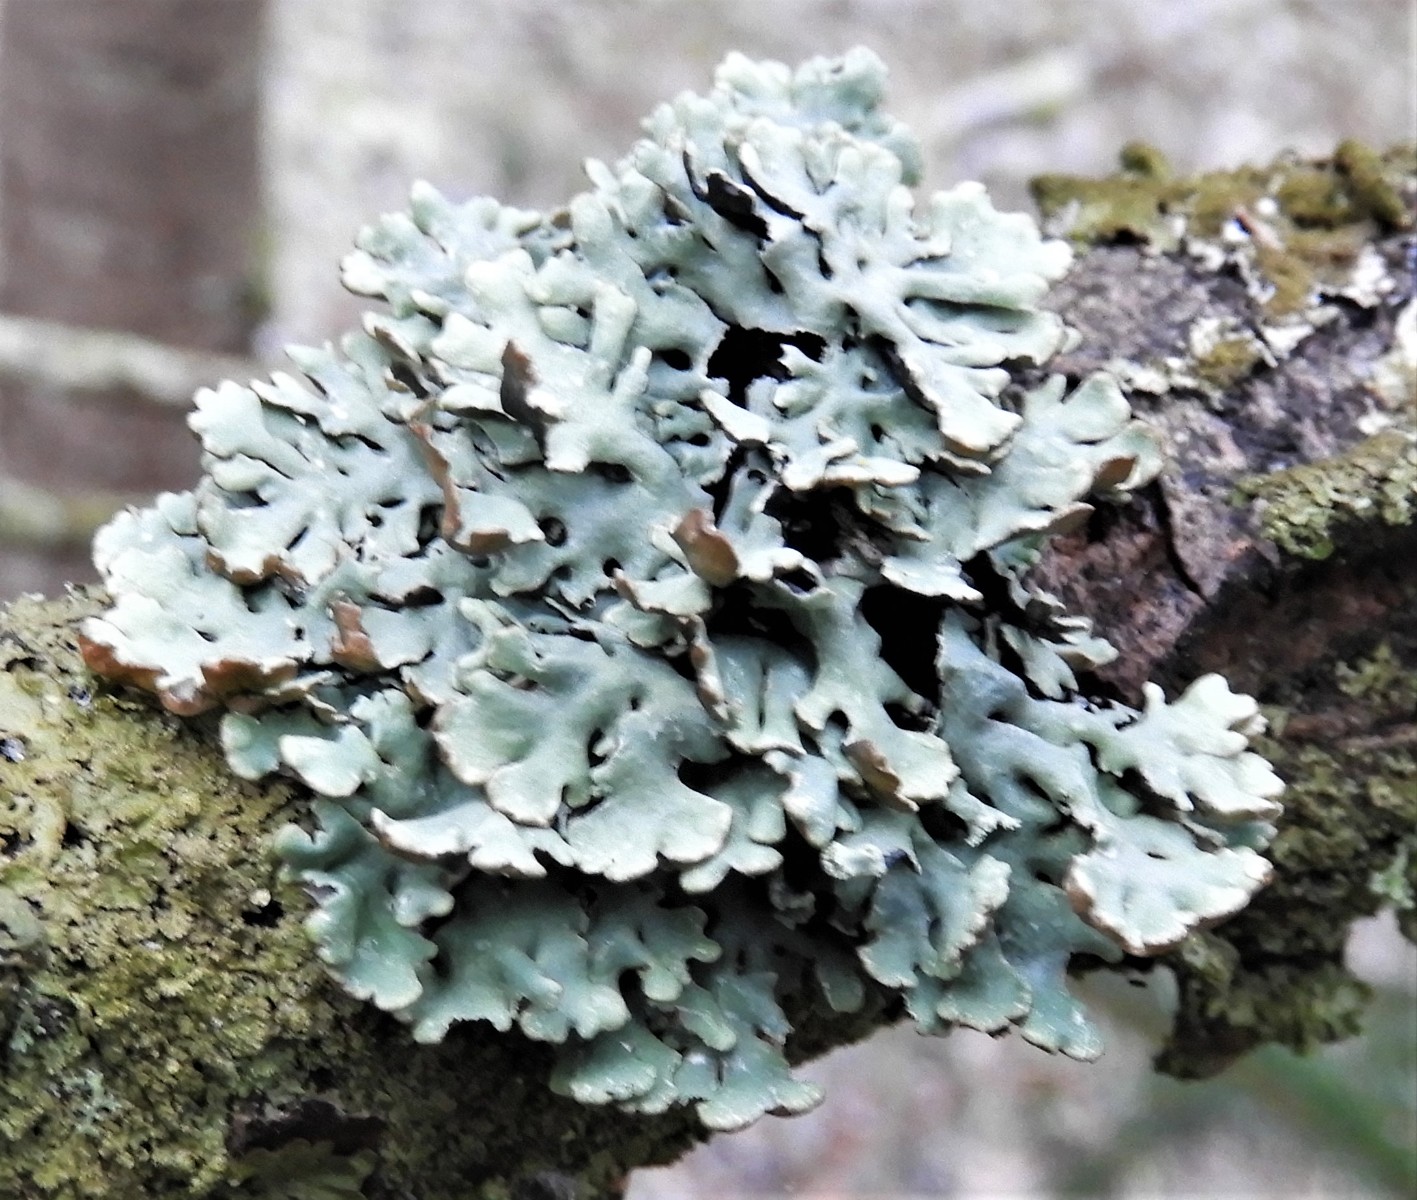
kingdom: Fungi
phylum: Ascomycota
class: Lecanoromycetes
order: Lecanorales
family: Parmeliaceae
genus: Hypogymnia
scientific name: Hypogymnia physodes
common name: almindelig kvistlav
